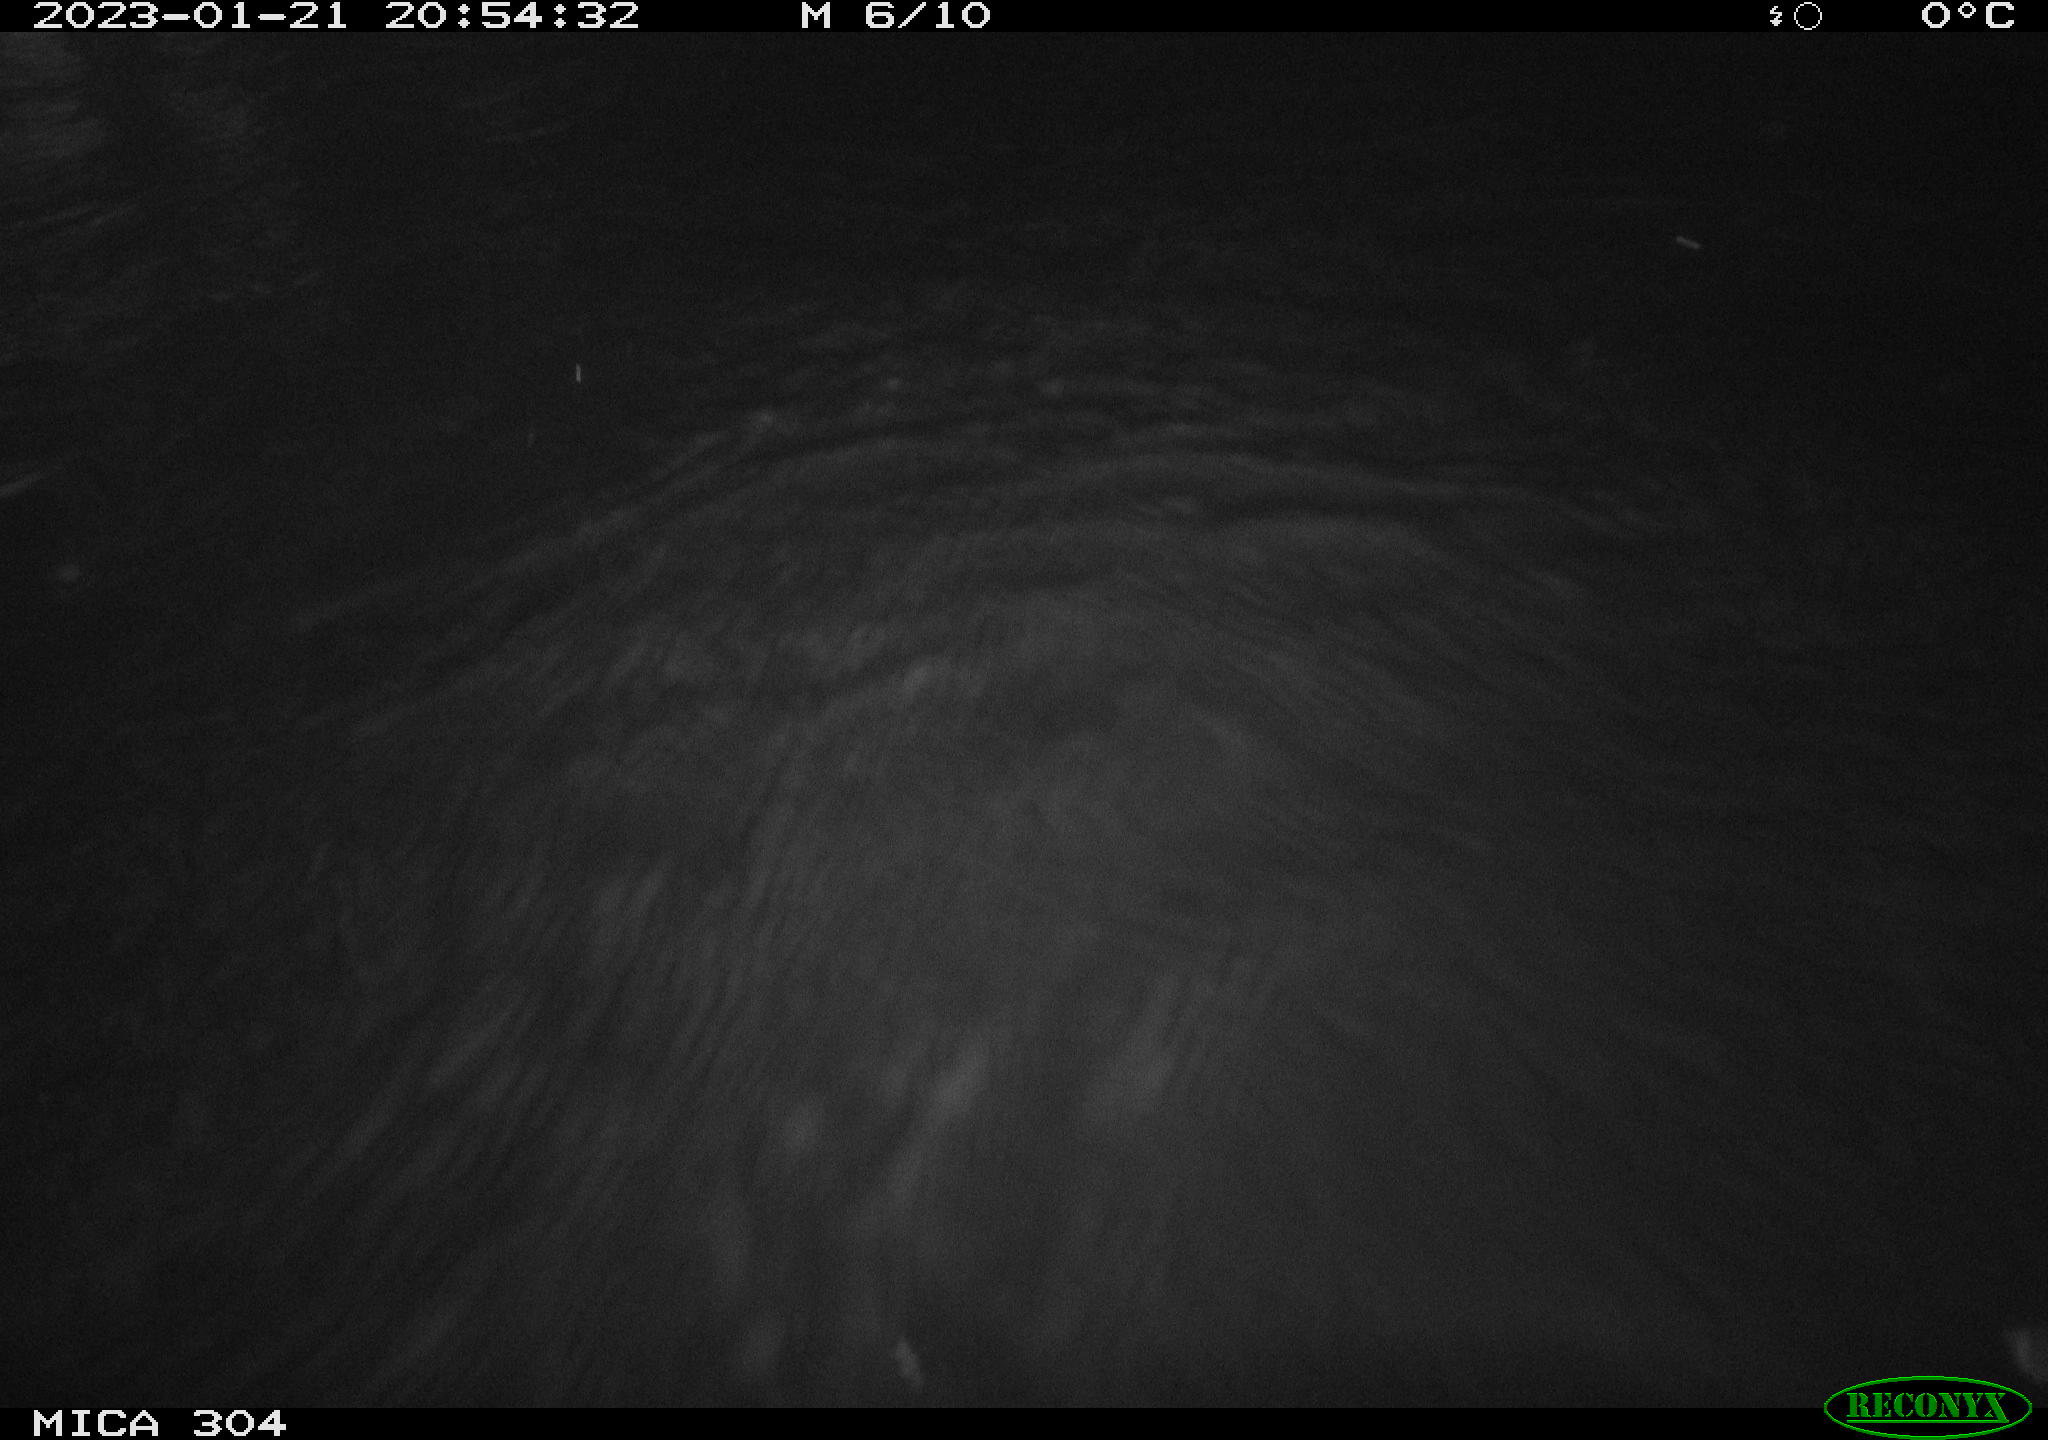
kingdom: Animalia
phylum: Chordata
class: Mammalia
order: Rodentia
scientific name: Rodentia
